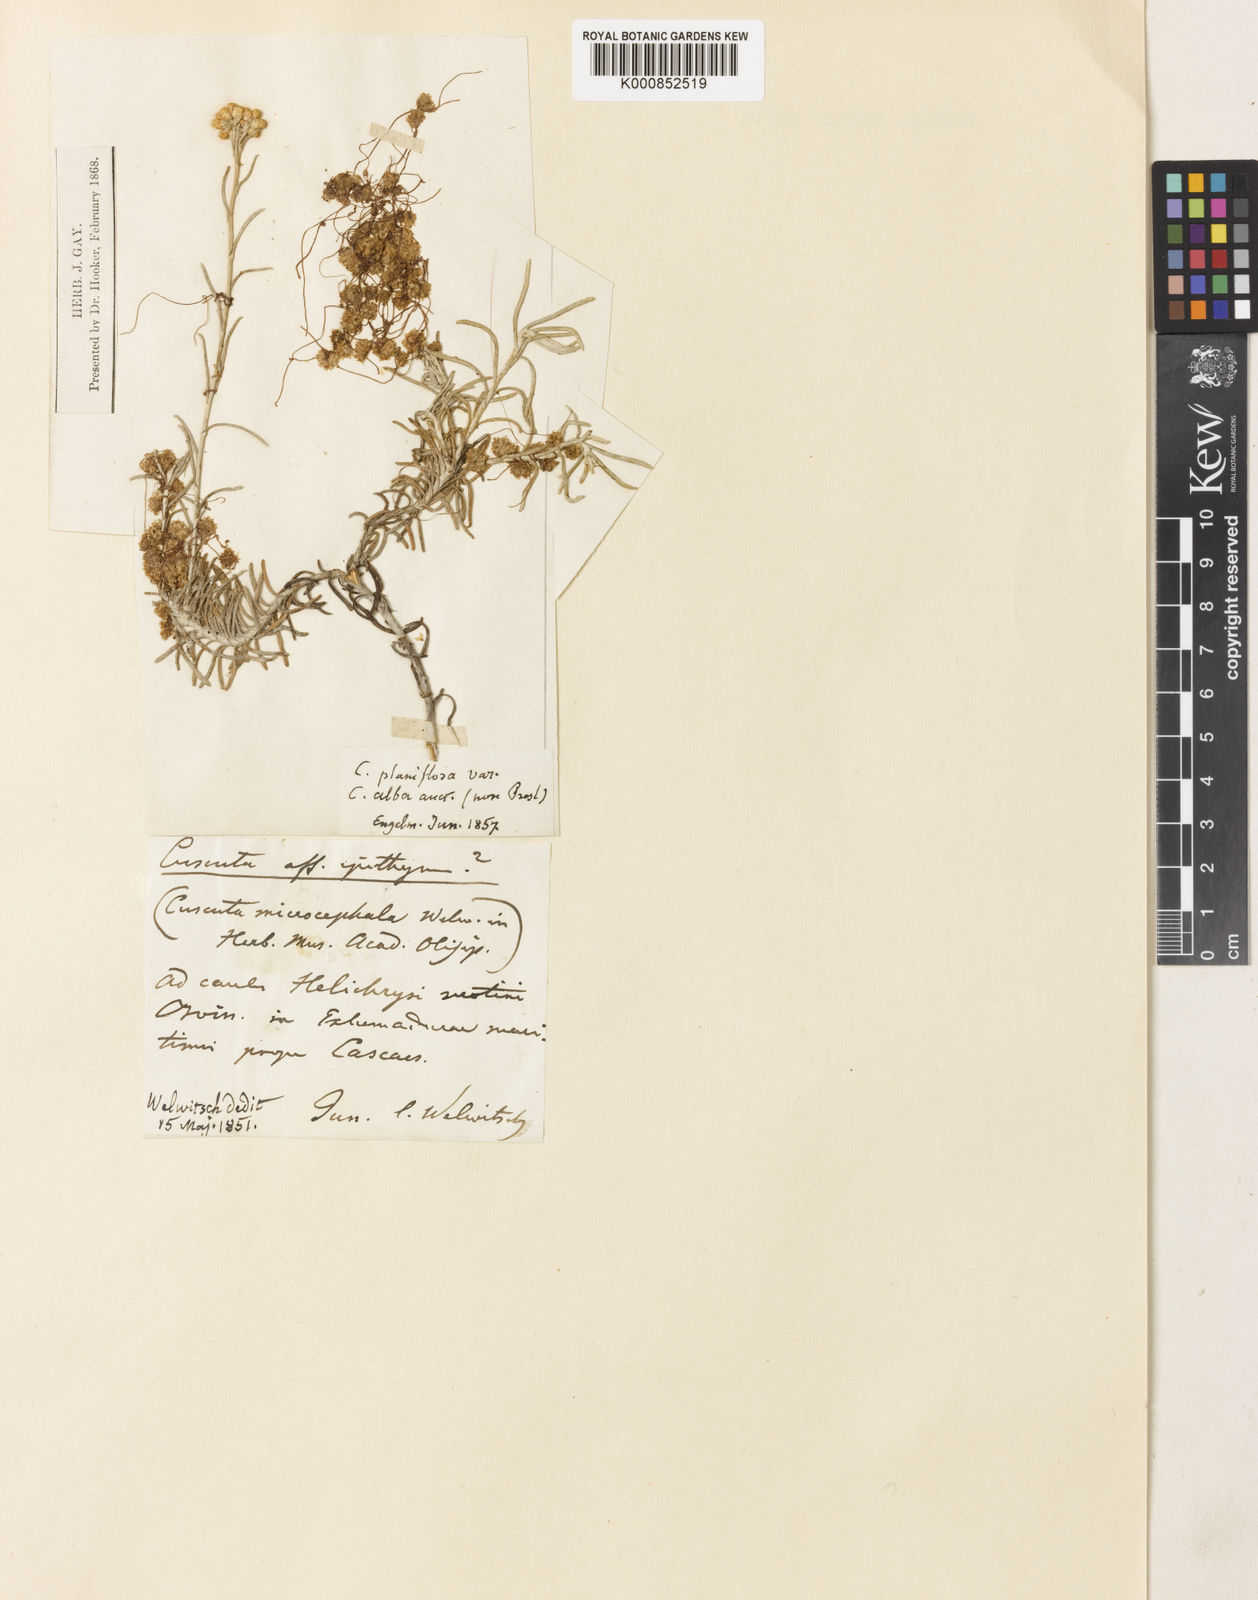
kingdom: Plantae
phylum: Tracheophyta
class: Magnoliopsida
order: Solanales
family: Convolvulaceae
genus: Cuscuta
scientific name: Cuscuta approximata
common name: Alfalfa dodder
